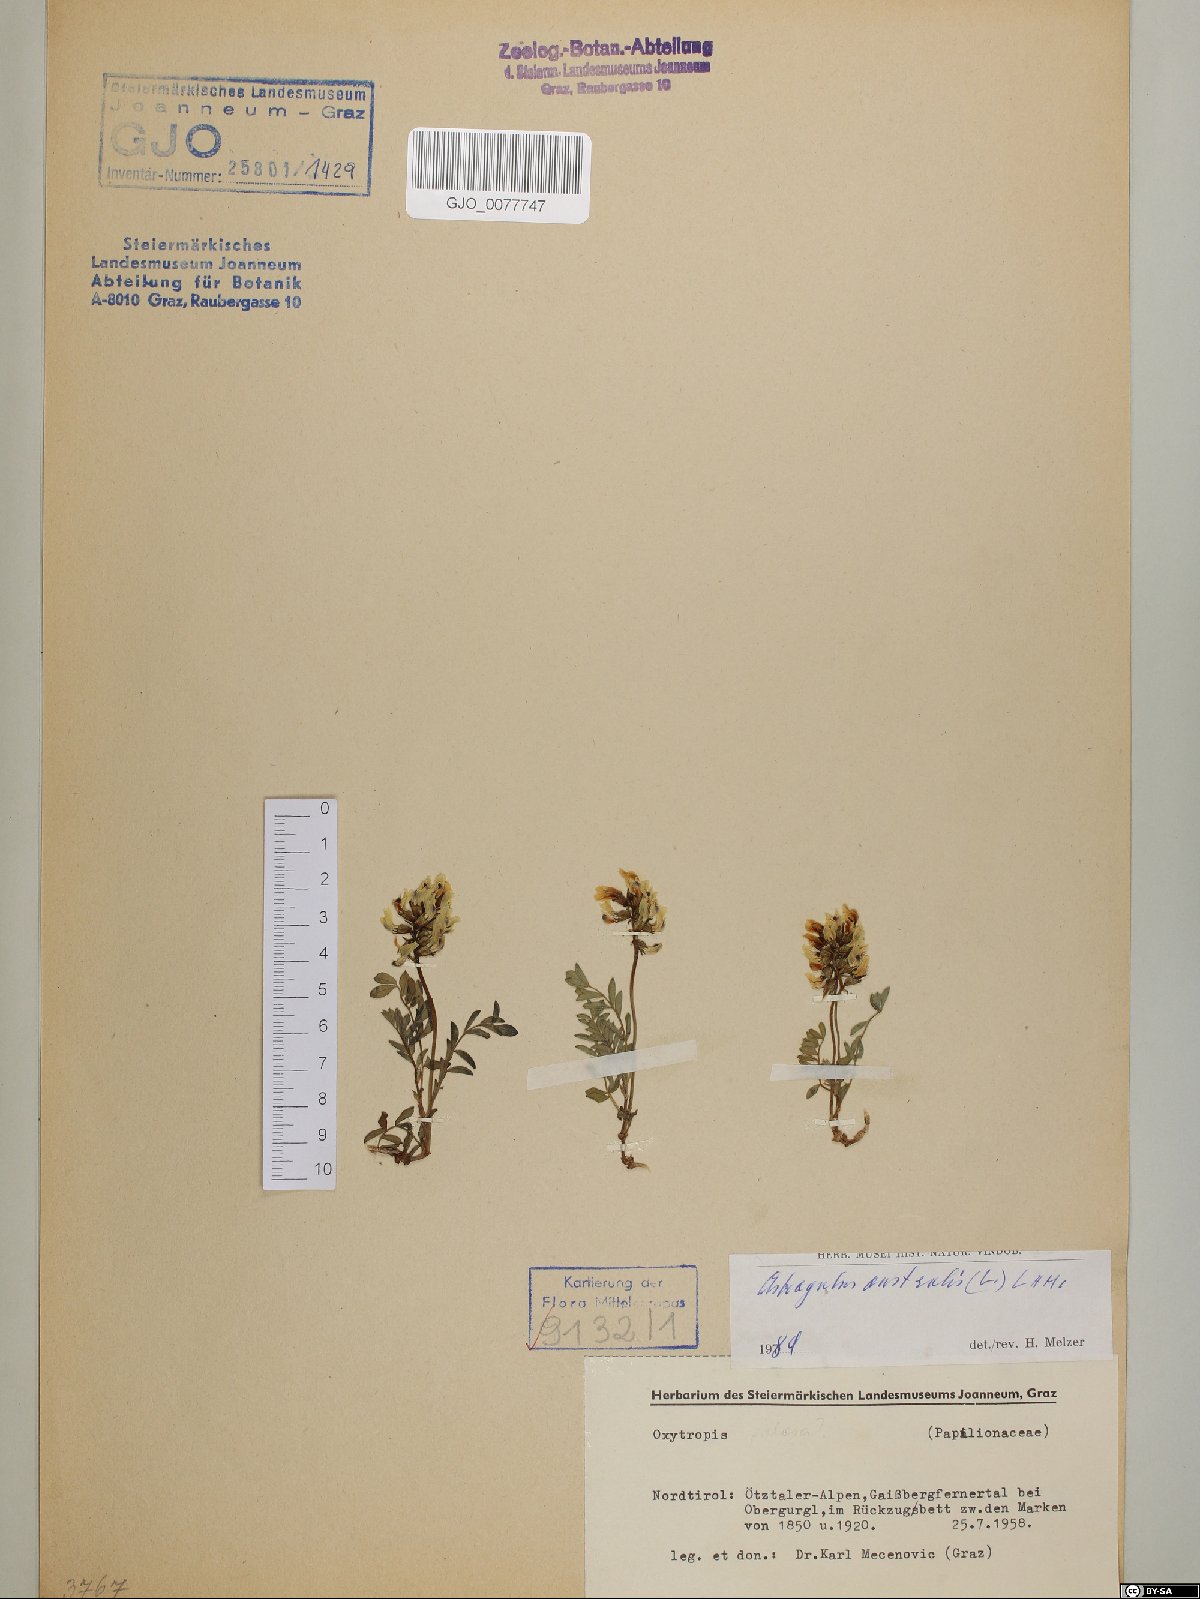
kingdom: Plantae
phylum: Tracheophyta
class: Magnoliopsida
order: Fabales
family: Fabaceae
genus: Astragalus
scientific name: Astragalus australis
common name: Indian milk-vetch
